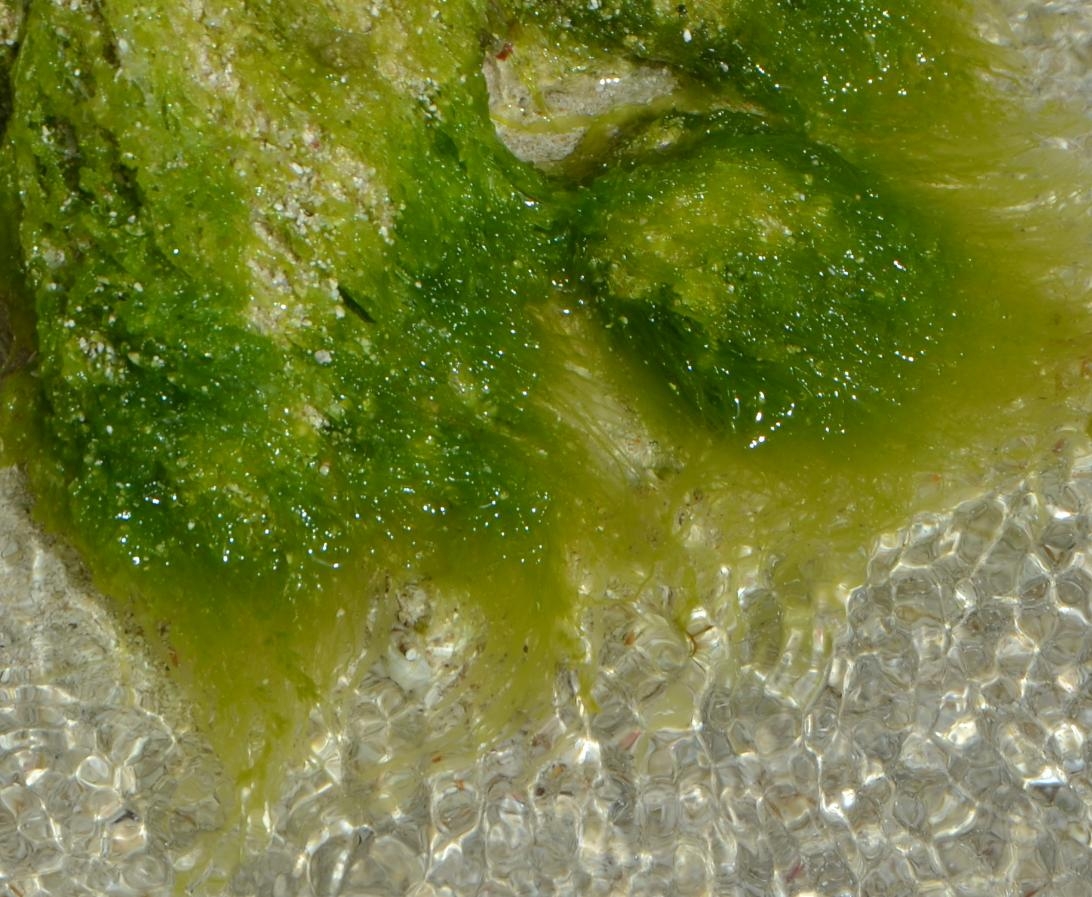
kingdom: Plantae
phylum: Chlorophyta
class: Ulvophyceae
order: Ulvales
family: Ulvaceae
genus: Ulva
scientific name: Ulva flexuosa
